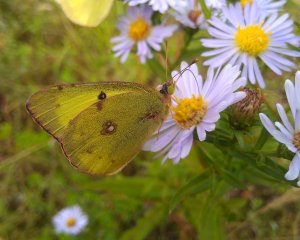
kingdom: Animalia
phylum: Arthropoda
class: Insecta
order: Lepidoptera
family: Pieridae
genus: Colias
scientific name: Colias philodice
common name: Clouded Sulphur
